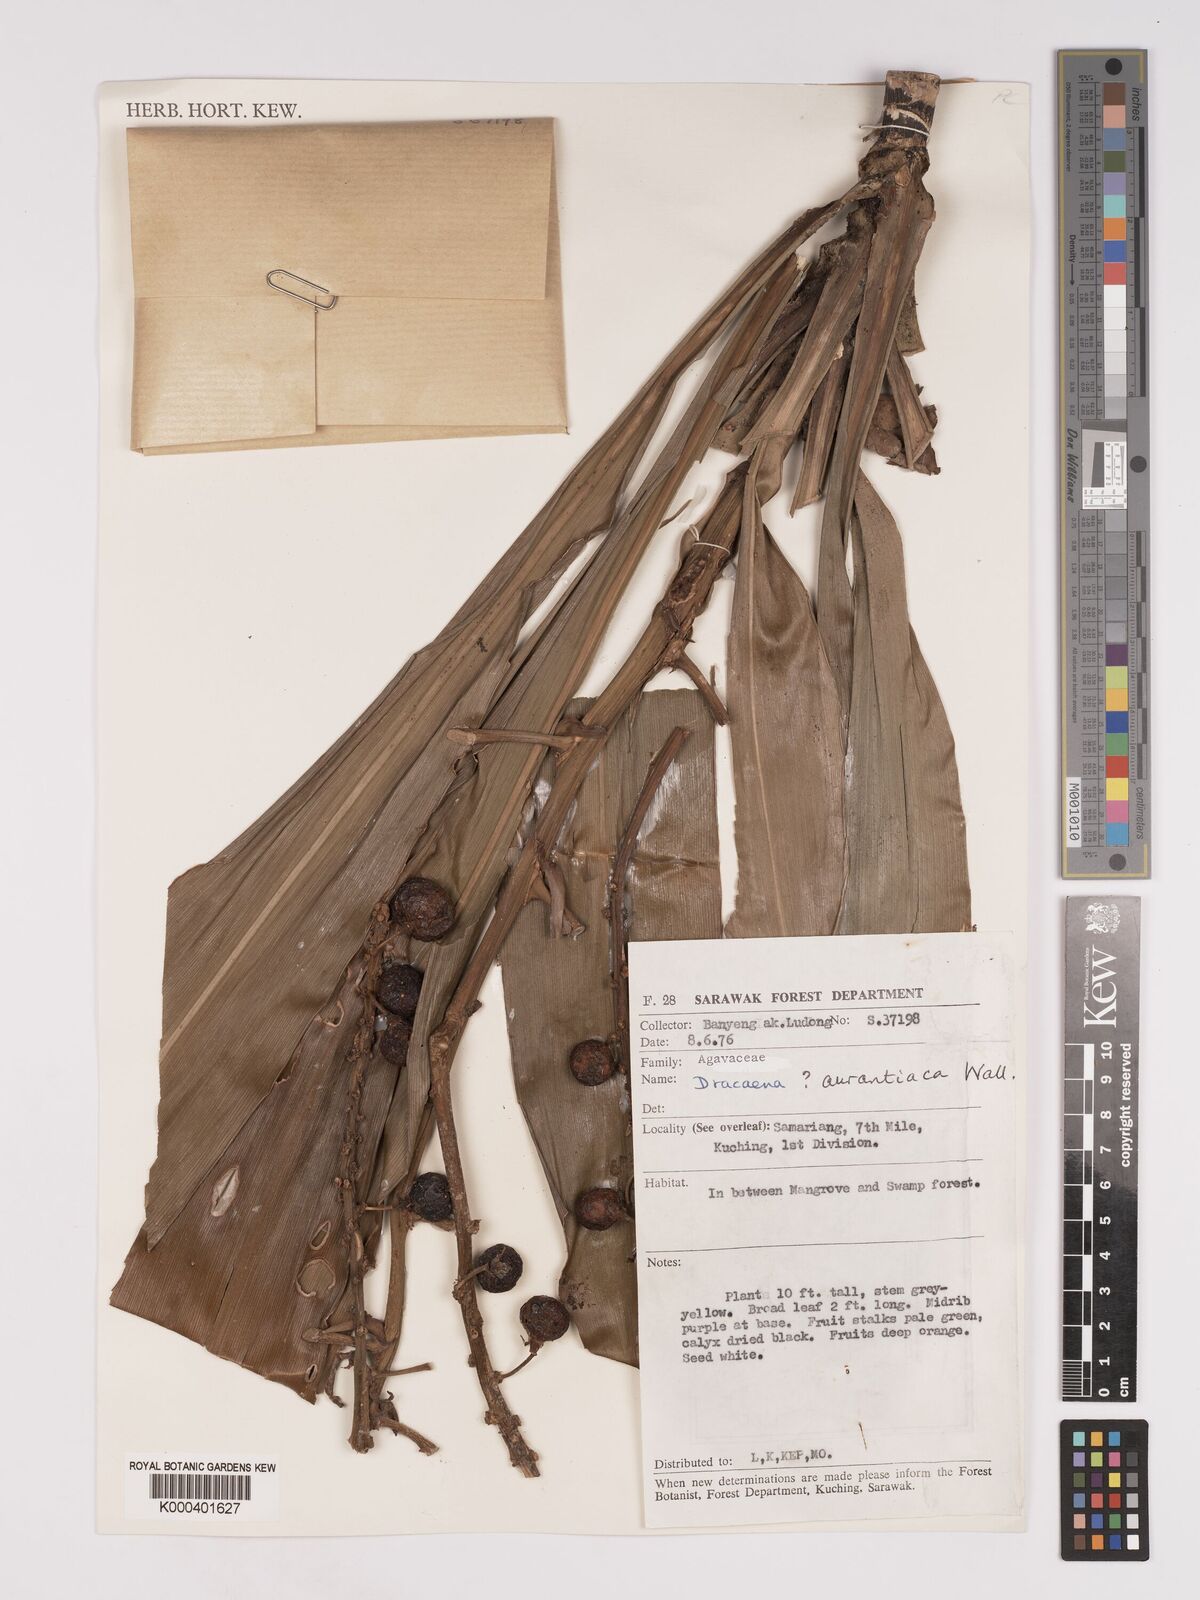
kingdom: Plantae
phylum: Tracheophyta
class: Liliopsida
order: Asparagales
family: Asparagaceae
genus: Dracaena
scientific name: Dracaena
